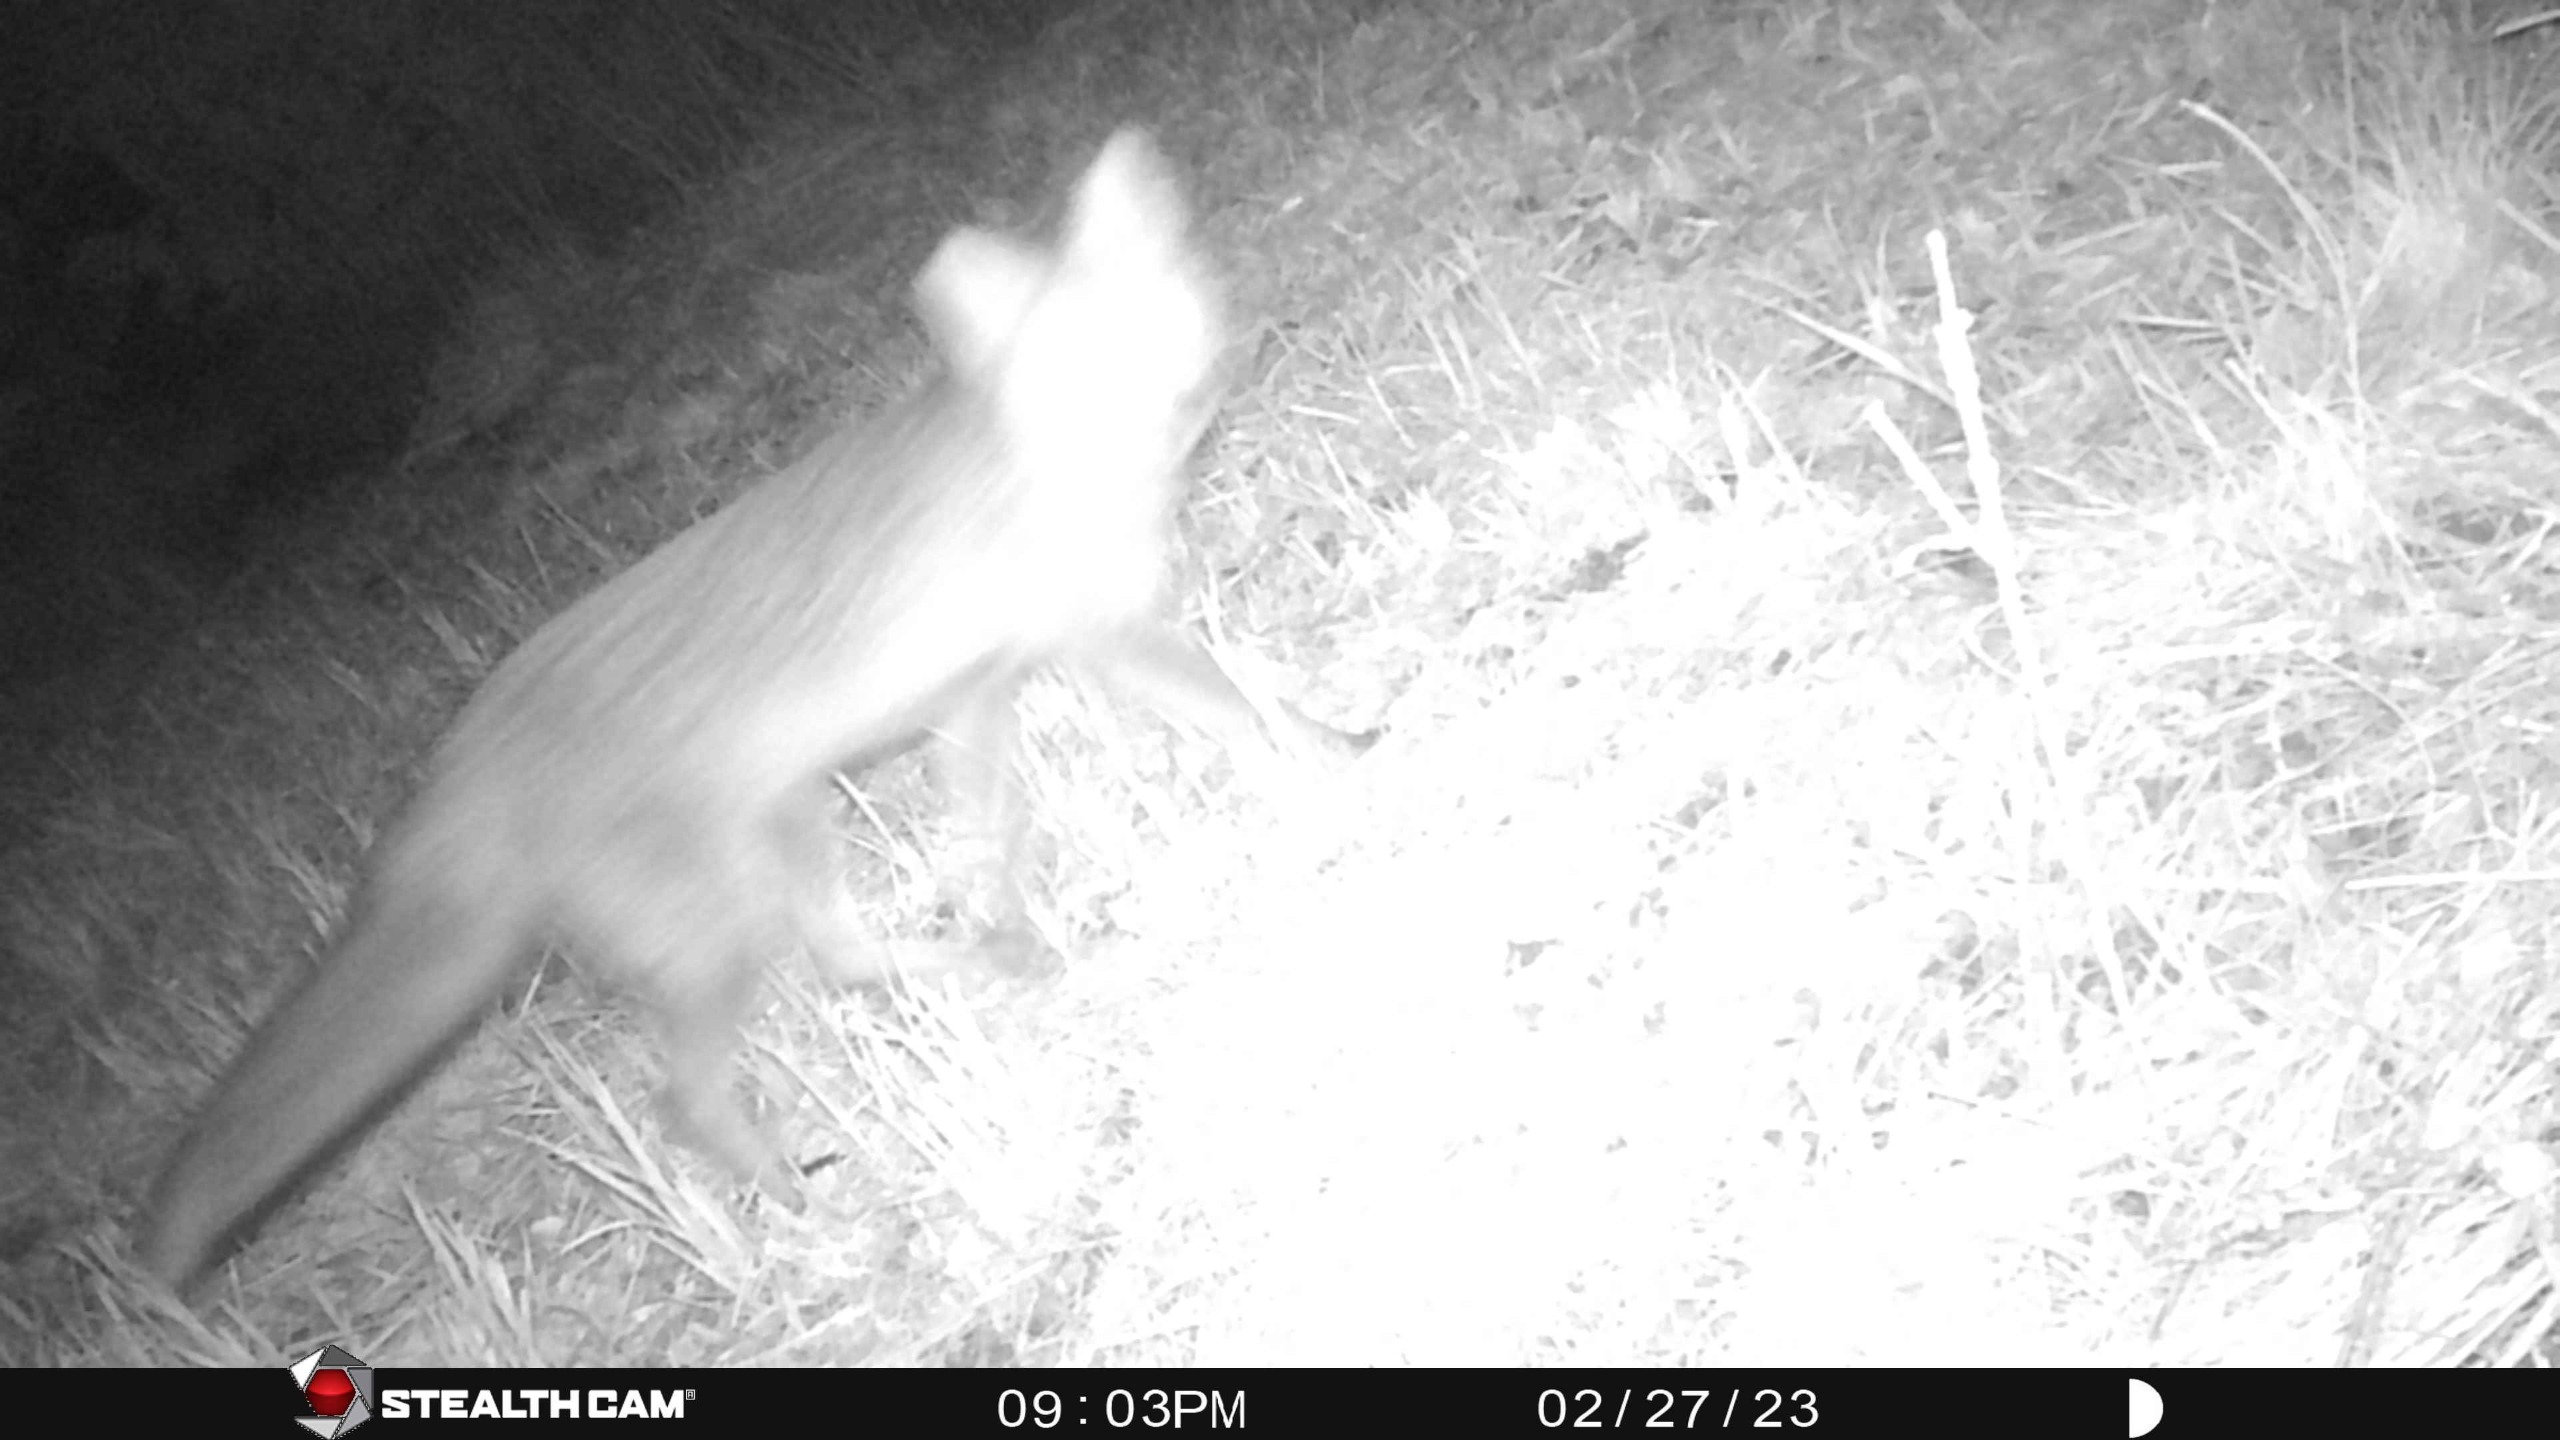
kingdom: Animalia
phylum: Chordata
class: Mammalia
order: Carnivora
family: Canidae
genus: Vulpes
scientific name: Vulpes vulpes
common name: Ræv
